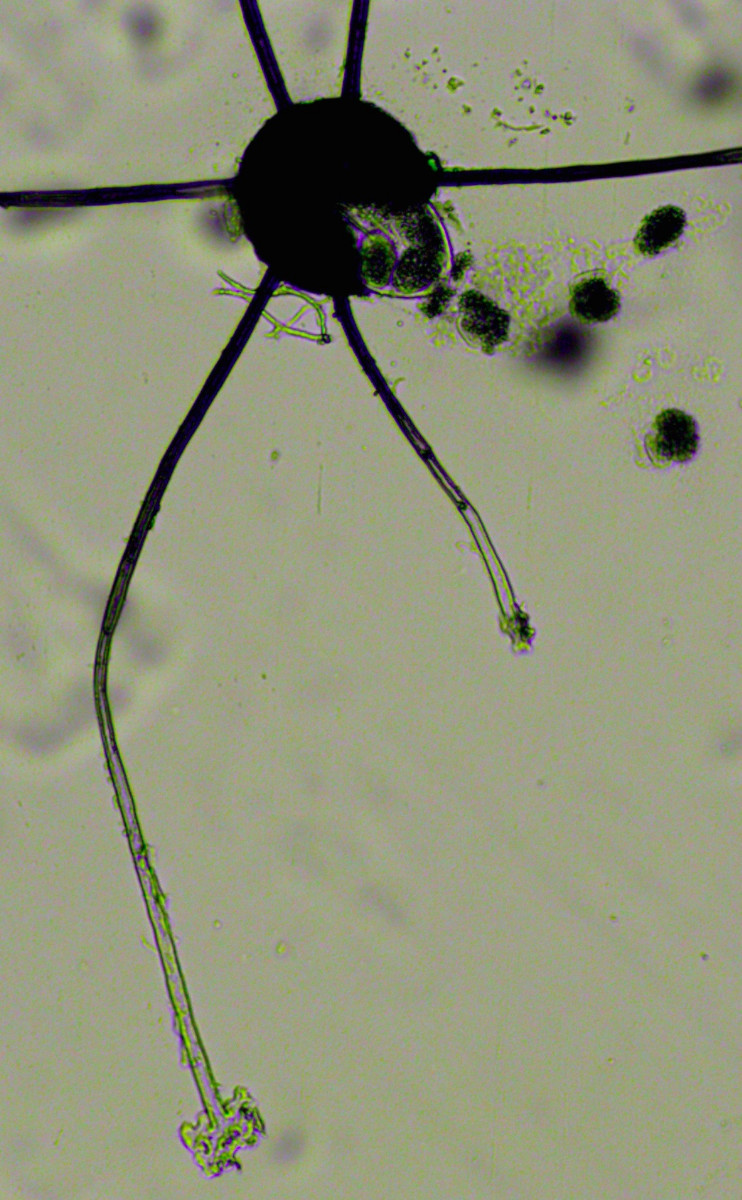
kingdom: Fungi
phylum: Ascomycota
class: Leotiomycetes
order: Helotiales
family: Erysiphaceae
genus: Podosphaera
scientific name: Podosphaera major
